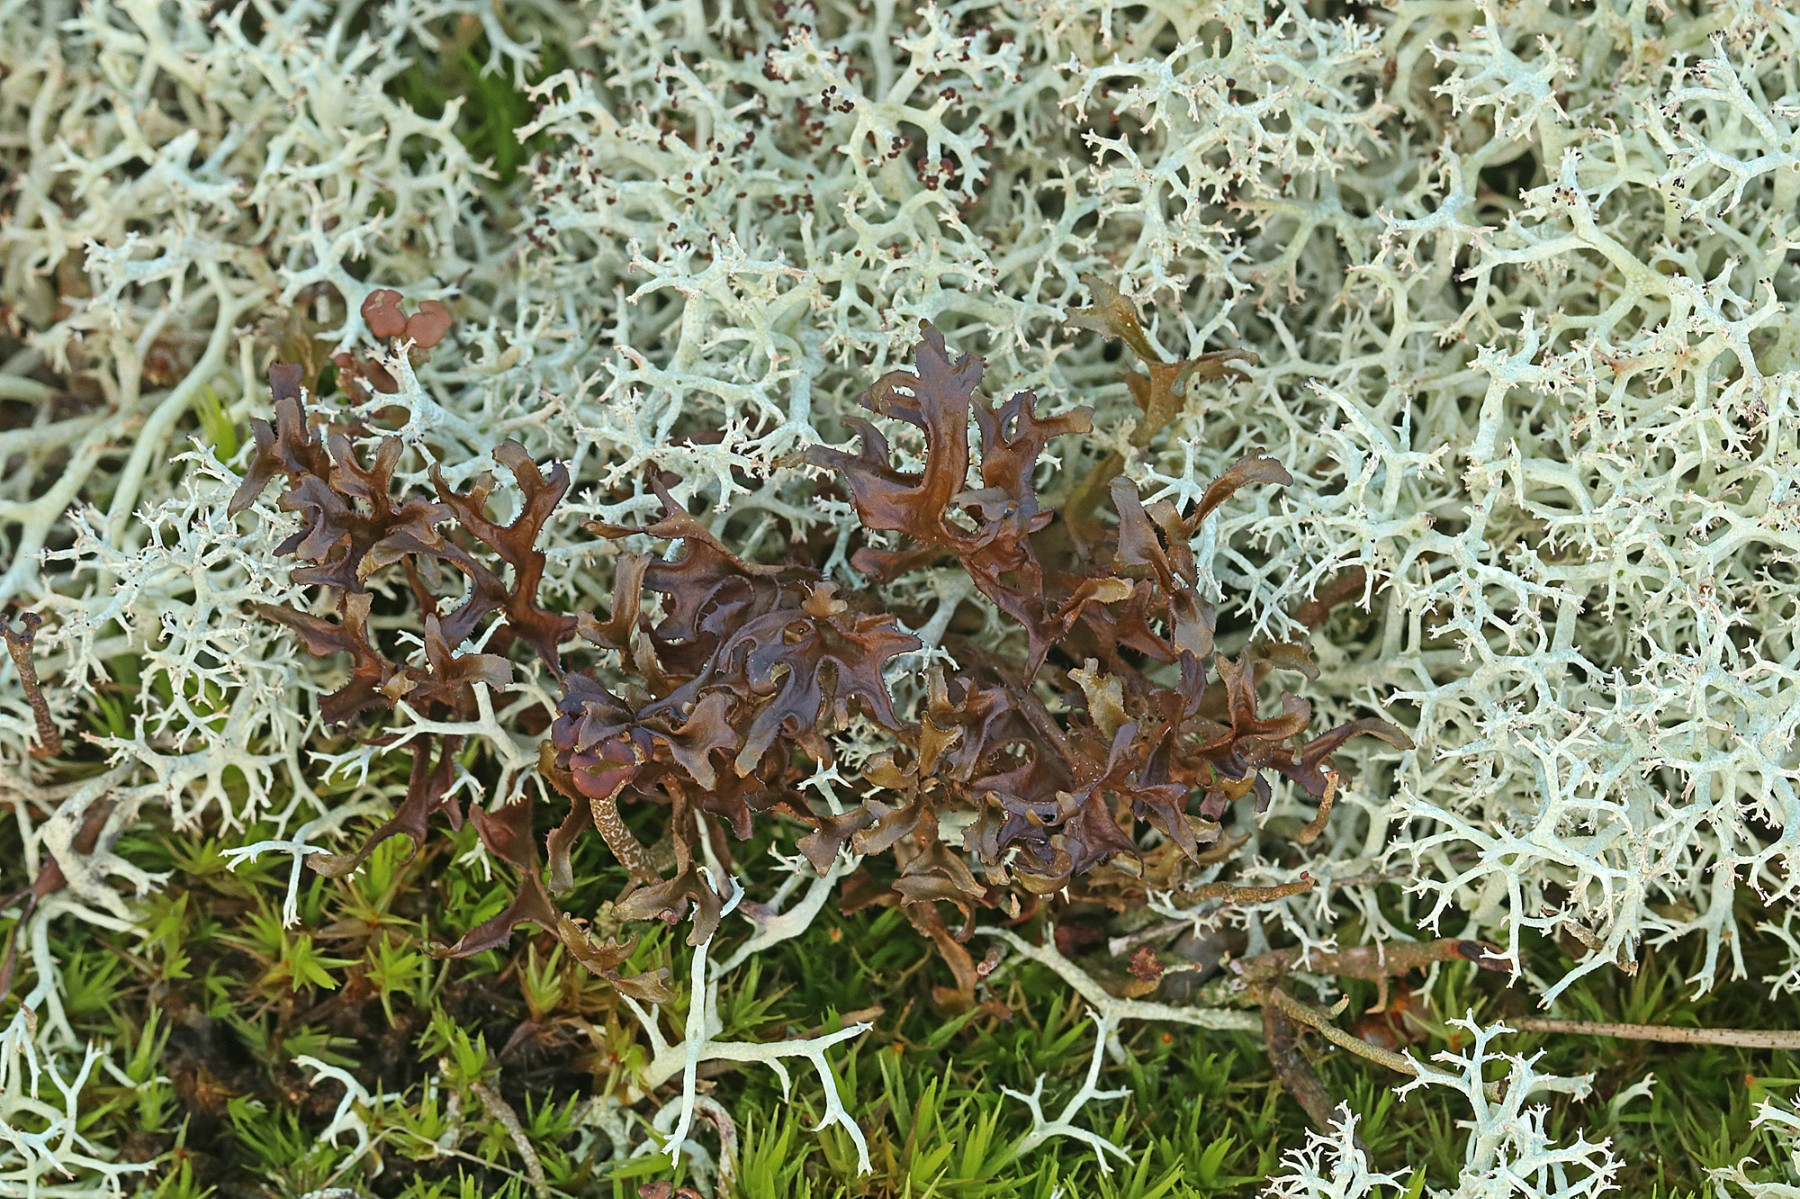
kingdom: Fungi
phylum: Ascomycota
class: Lecanoromycetes
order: Lecanorales
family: Parmeliaceae
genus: Cetraria
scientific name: Cetraria islandica
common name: islandsk kruslav
